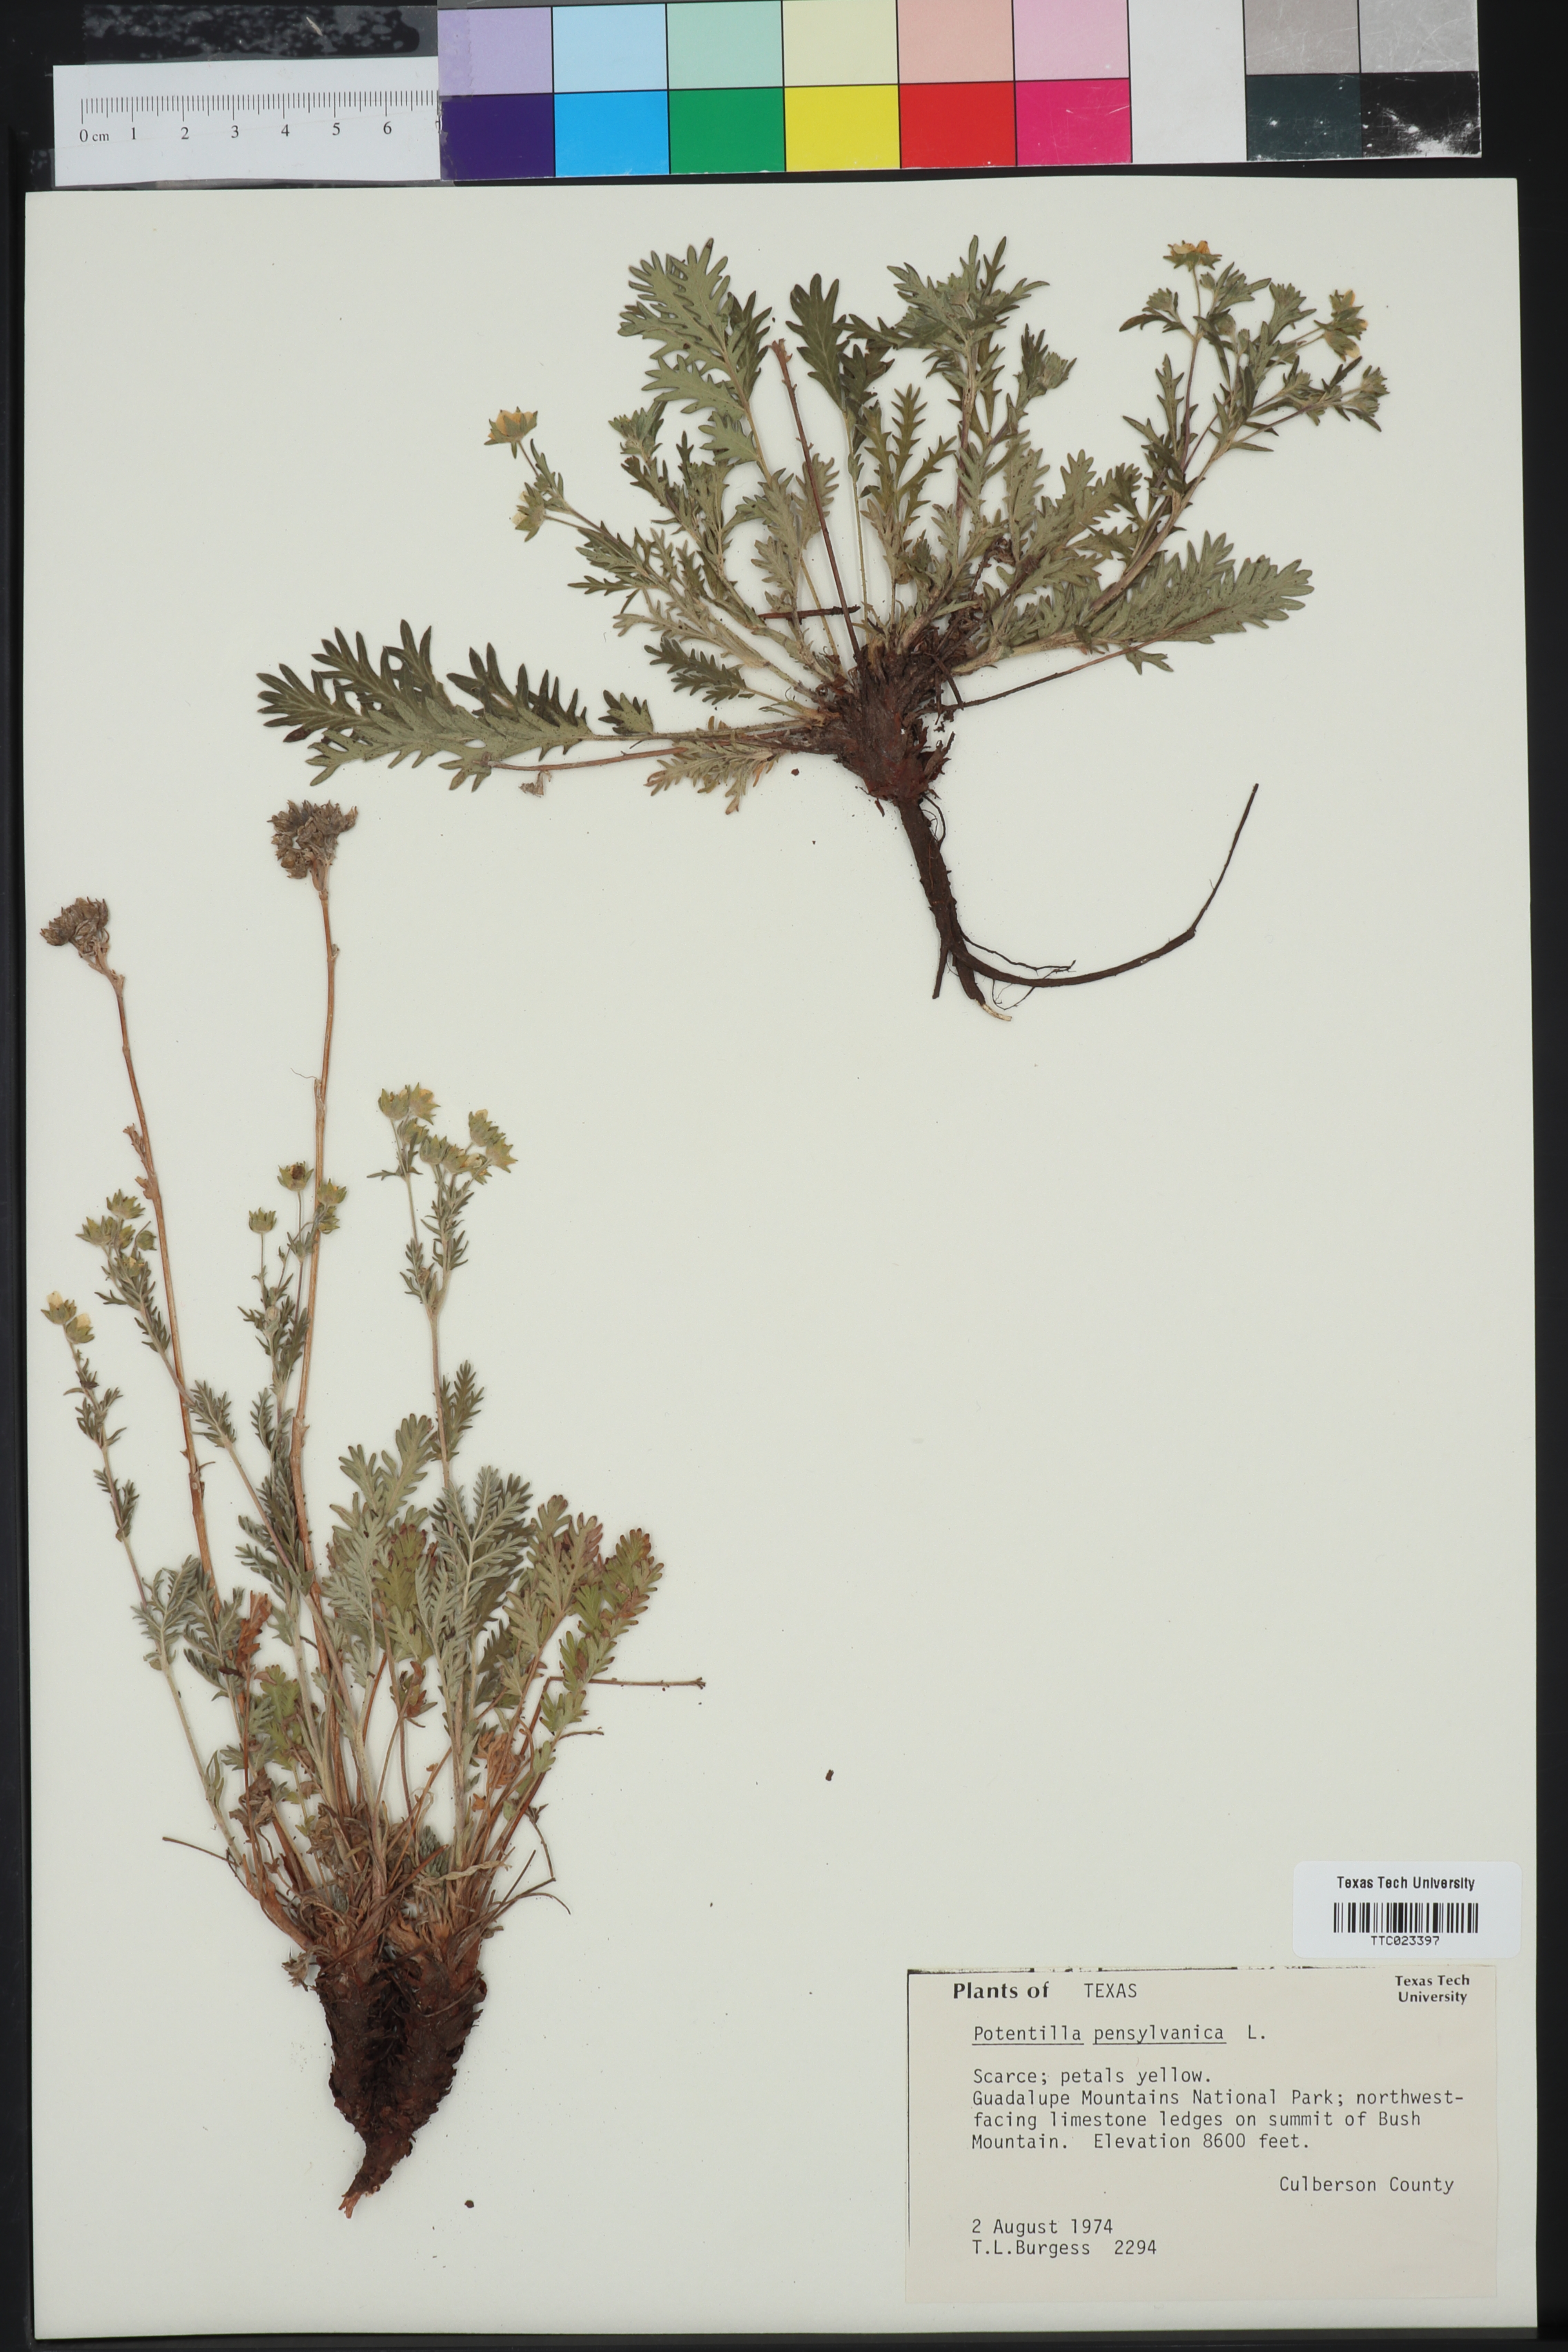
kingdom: Plantae
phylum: Tracheophyta
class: Magnoliopsida
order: Rosales
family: Rosaceae
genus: Potentilla
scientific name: Potentilla pensylvanica
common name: Pennsylvania cinquefoil
